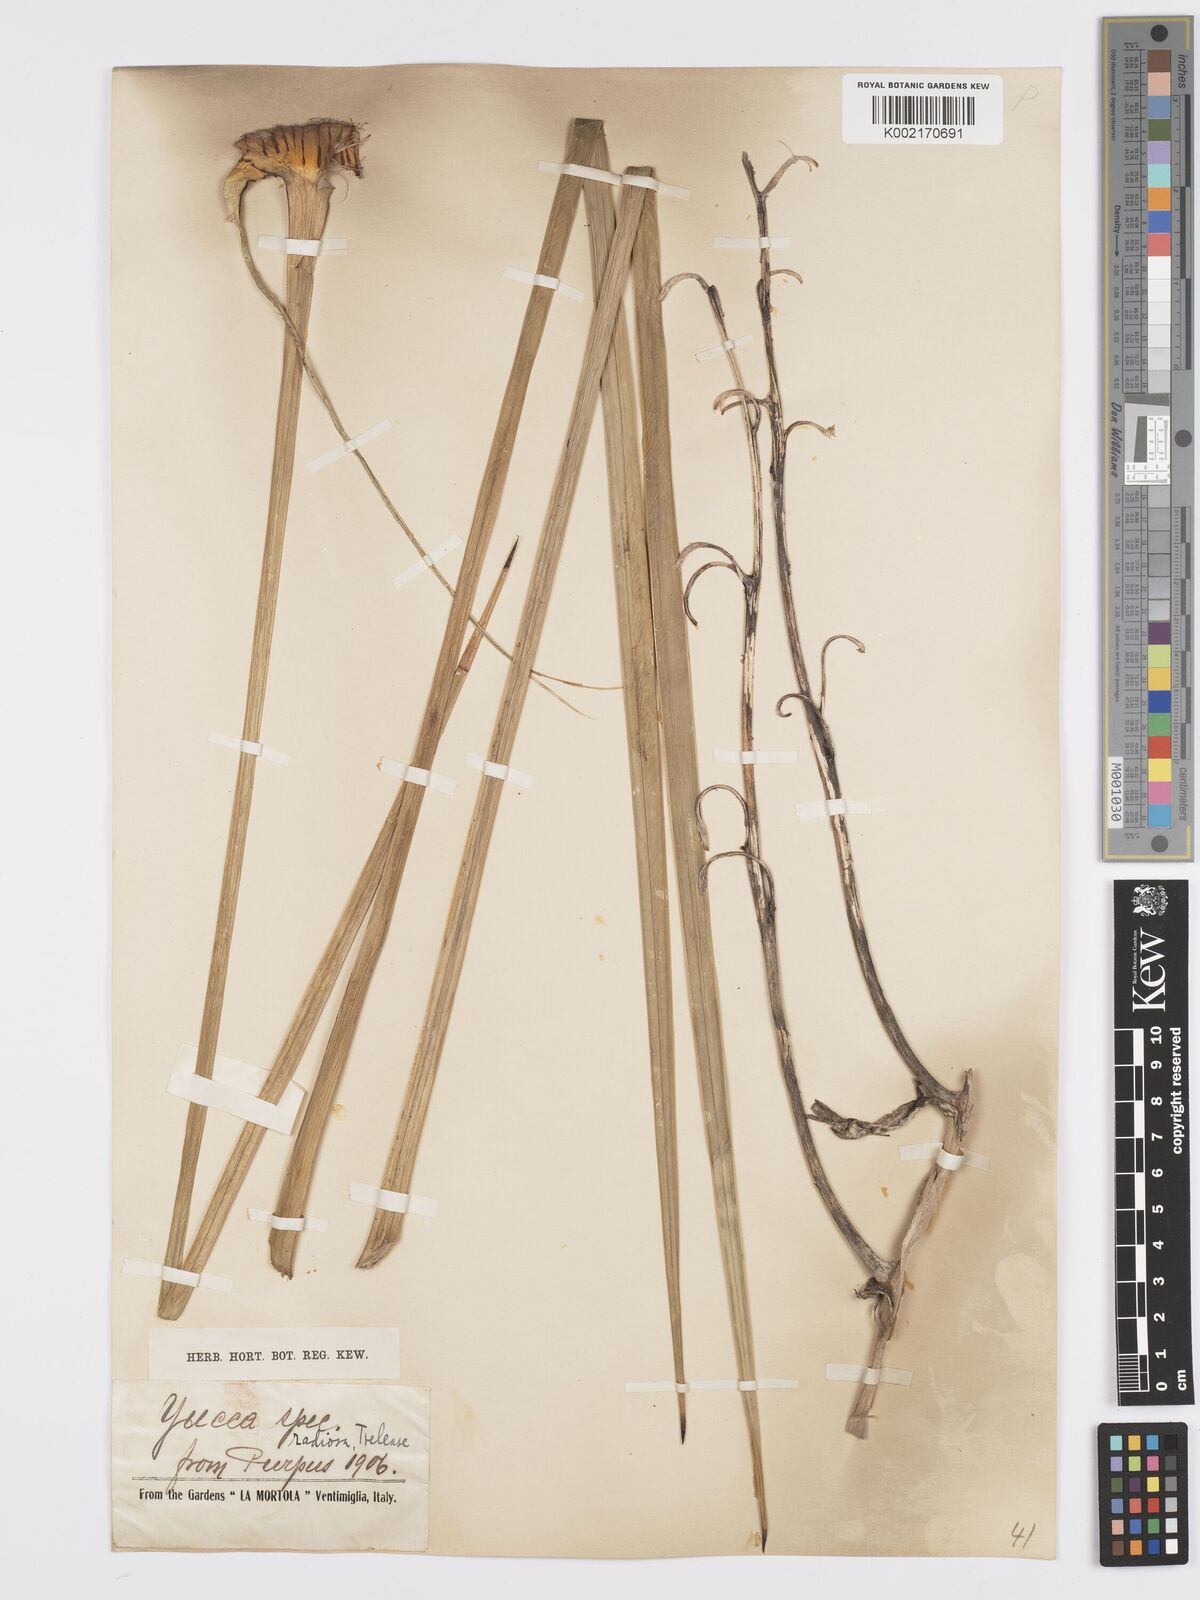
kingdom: Plantae
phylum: Tracheophyta
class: Liliopsida
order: Asparagales
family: Asparagaceae
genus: Yucca
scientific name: Yucca elata
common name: Palmella
